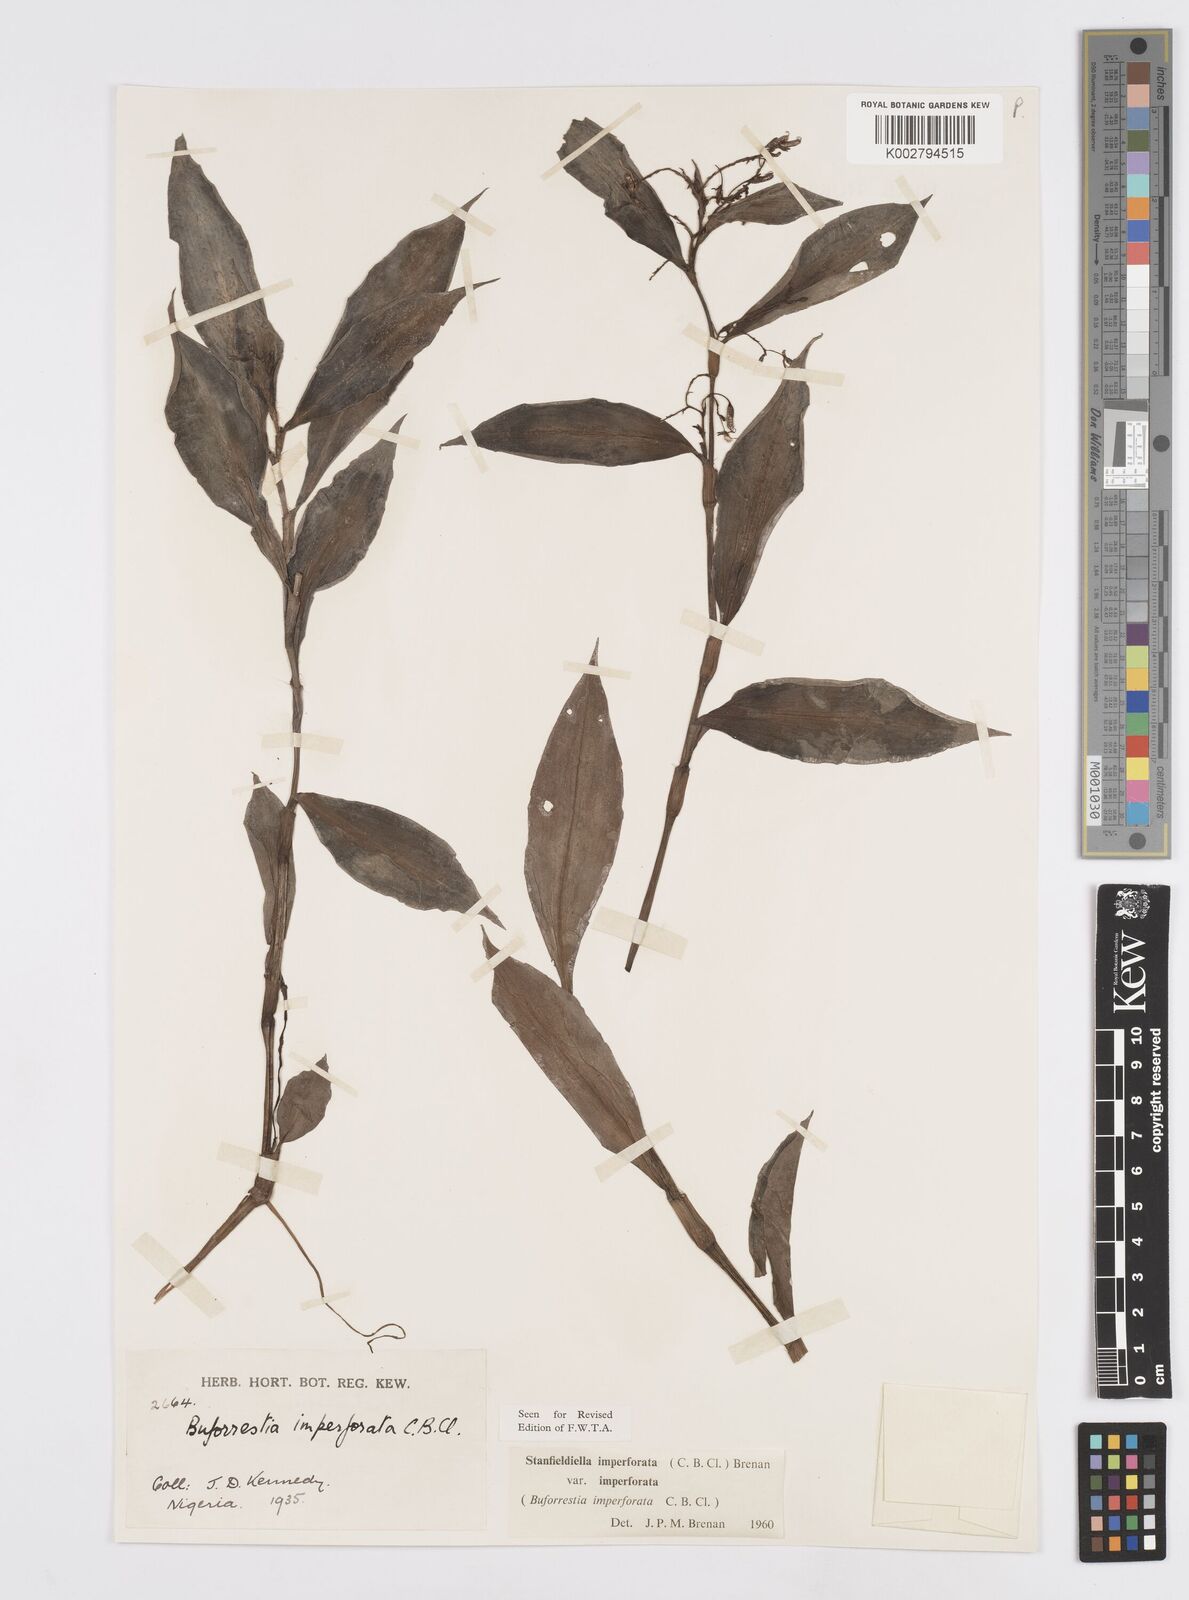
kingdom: Plantae
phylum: Tracheophyta
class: Liliopsida
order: Commelinales
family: Commelinaceae
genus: Stanfieldiella
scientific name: Stanfieldiella imperforata
